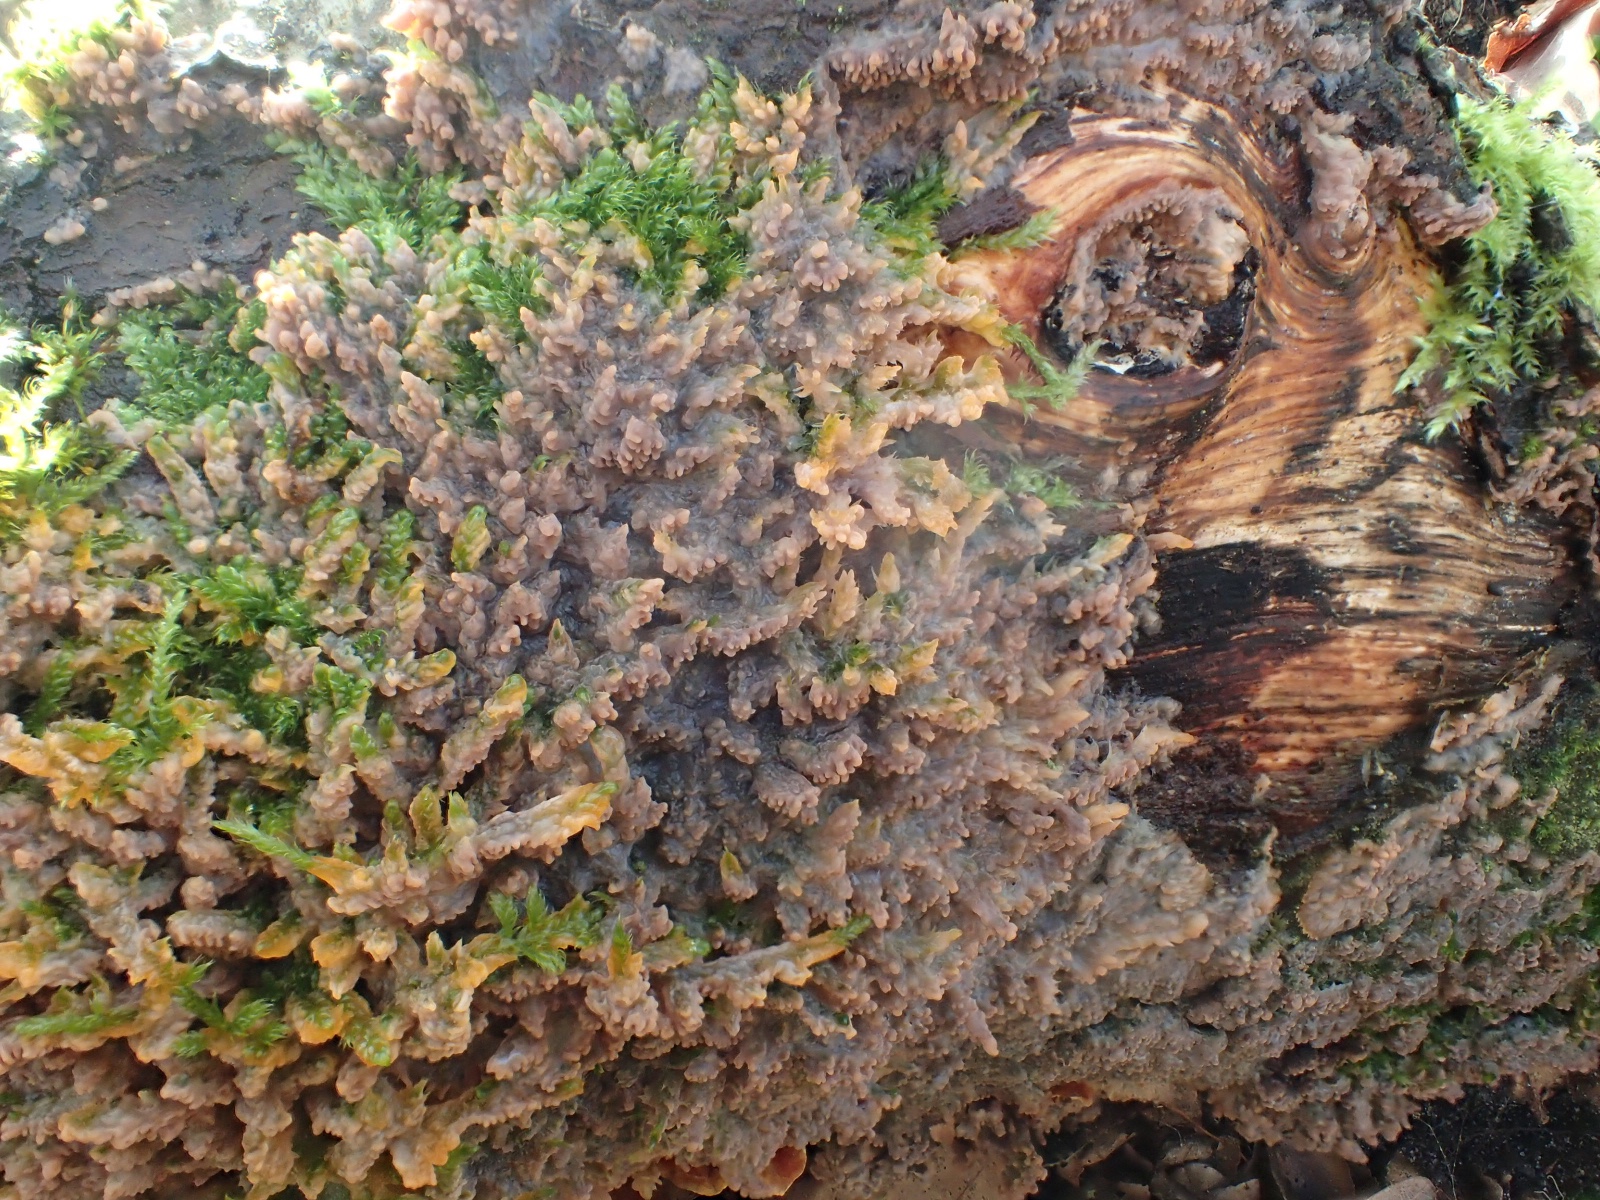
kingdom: Fungi
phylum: Basidiomycota
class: Agaricomycetes
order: Polyporales
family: Meruliaceae
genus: Phlebia
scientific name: Phlebia radiata
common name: stråle-åresvamp
